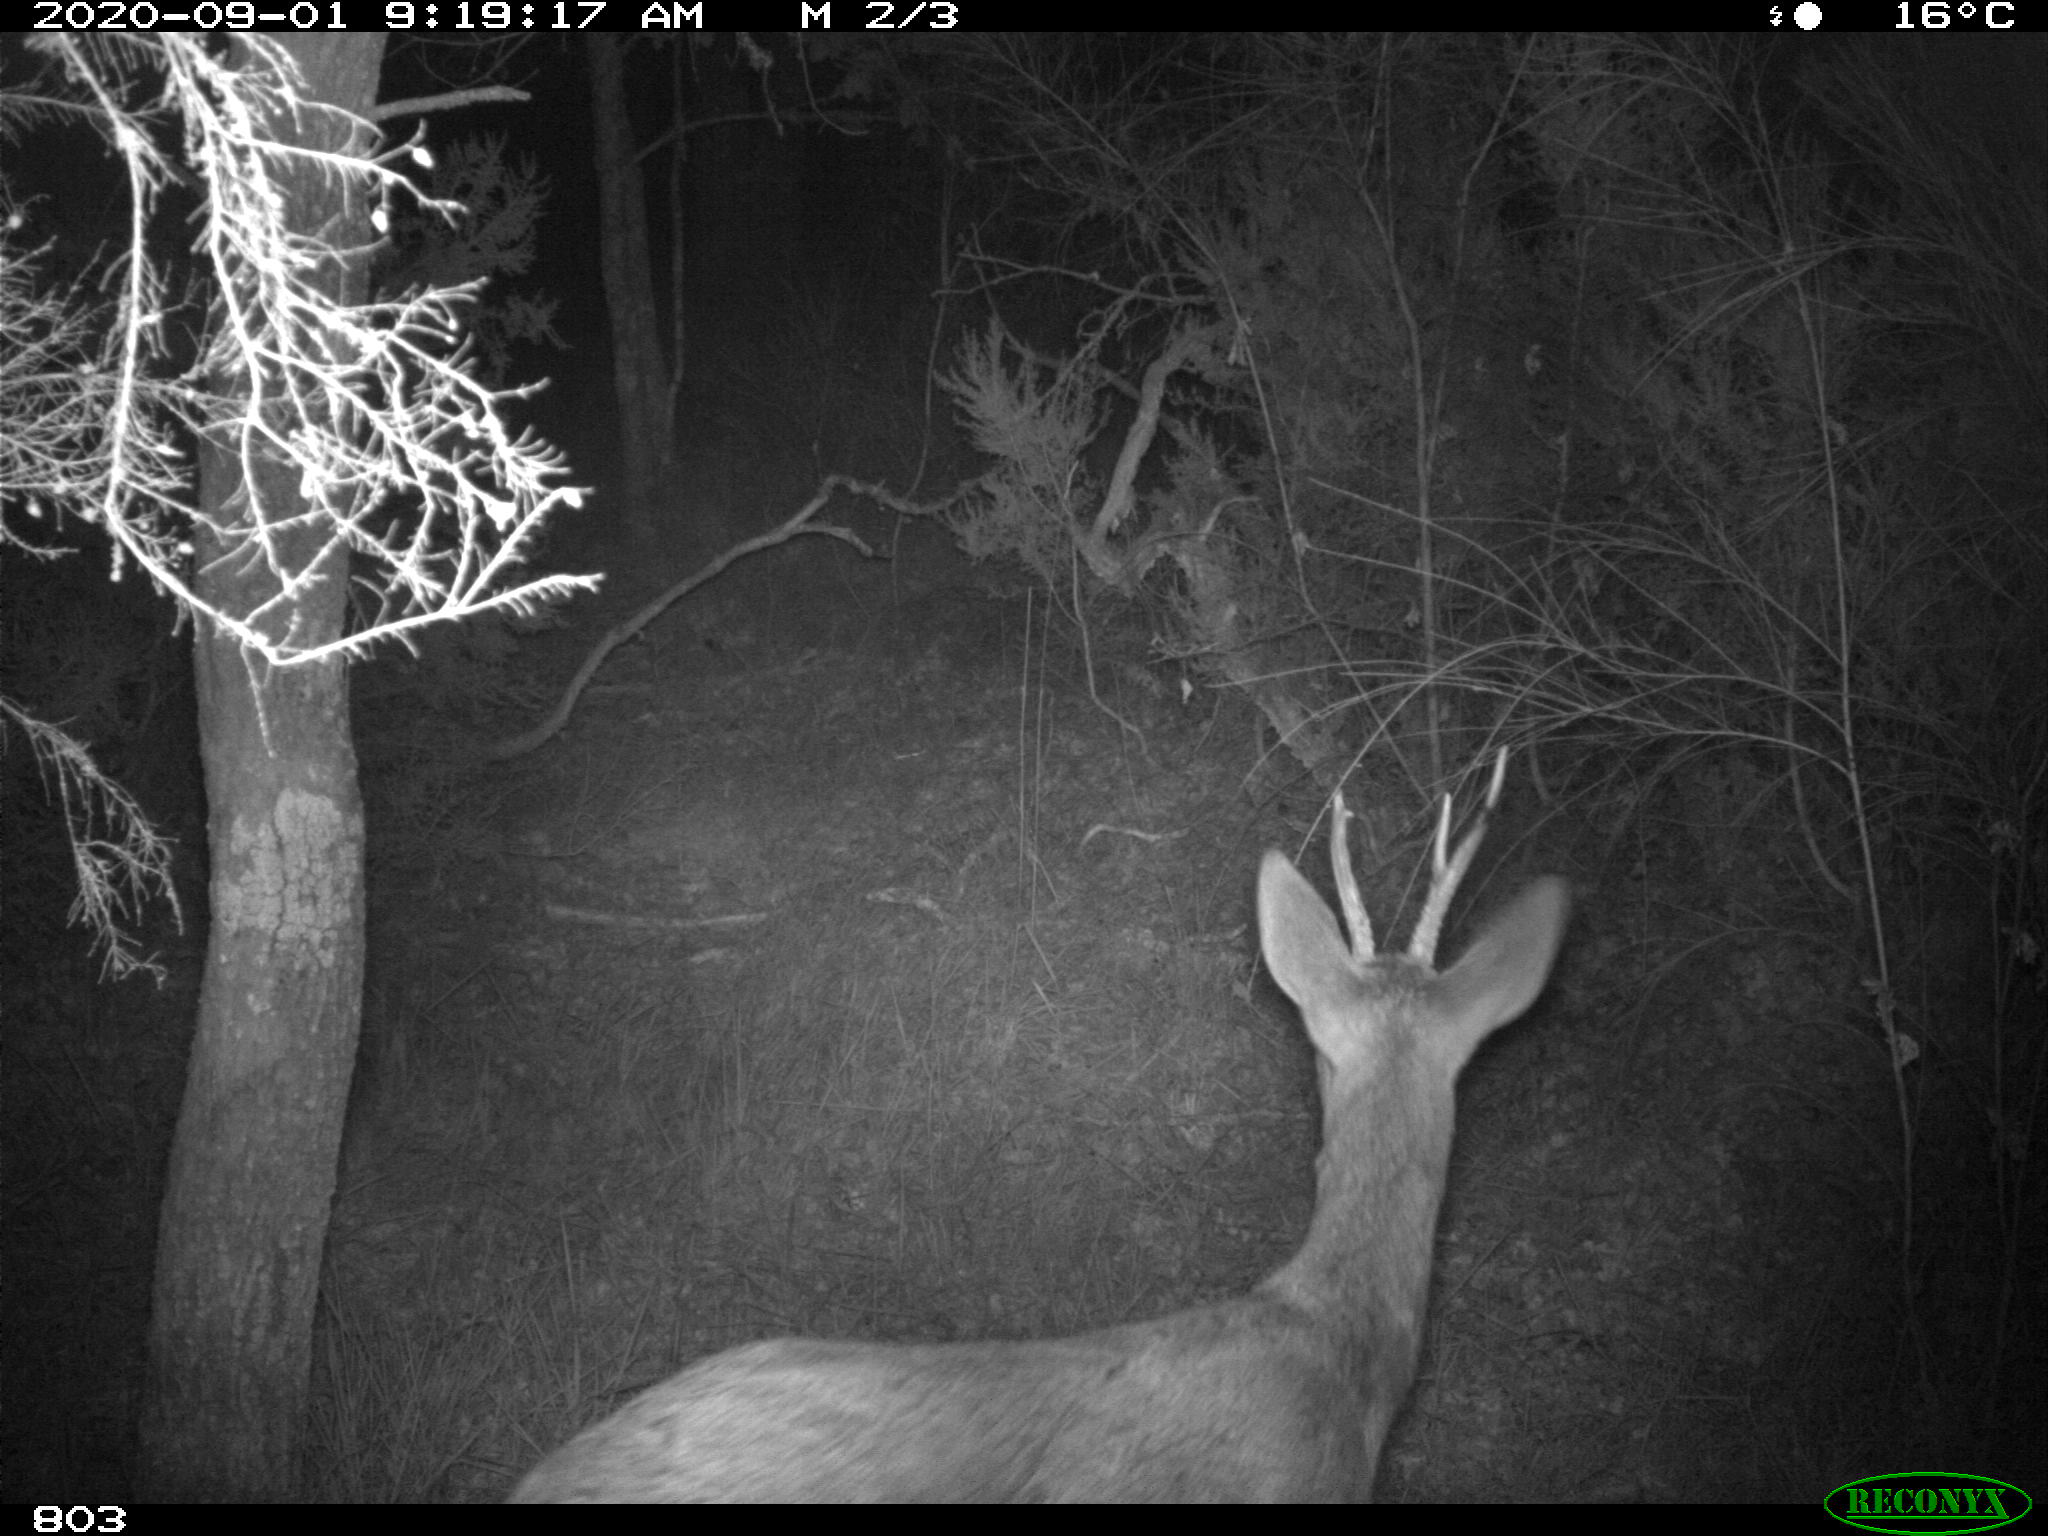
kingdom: Animalia
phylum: Chordata
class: Mammalia
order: Artiodactyla
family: Cervidae
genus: Capreolus
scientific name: Capreolus capreolus
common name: Western roe deer
